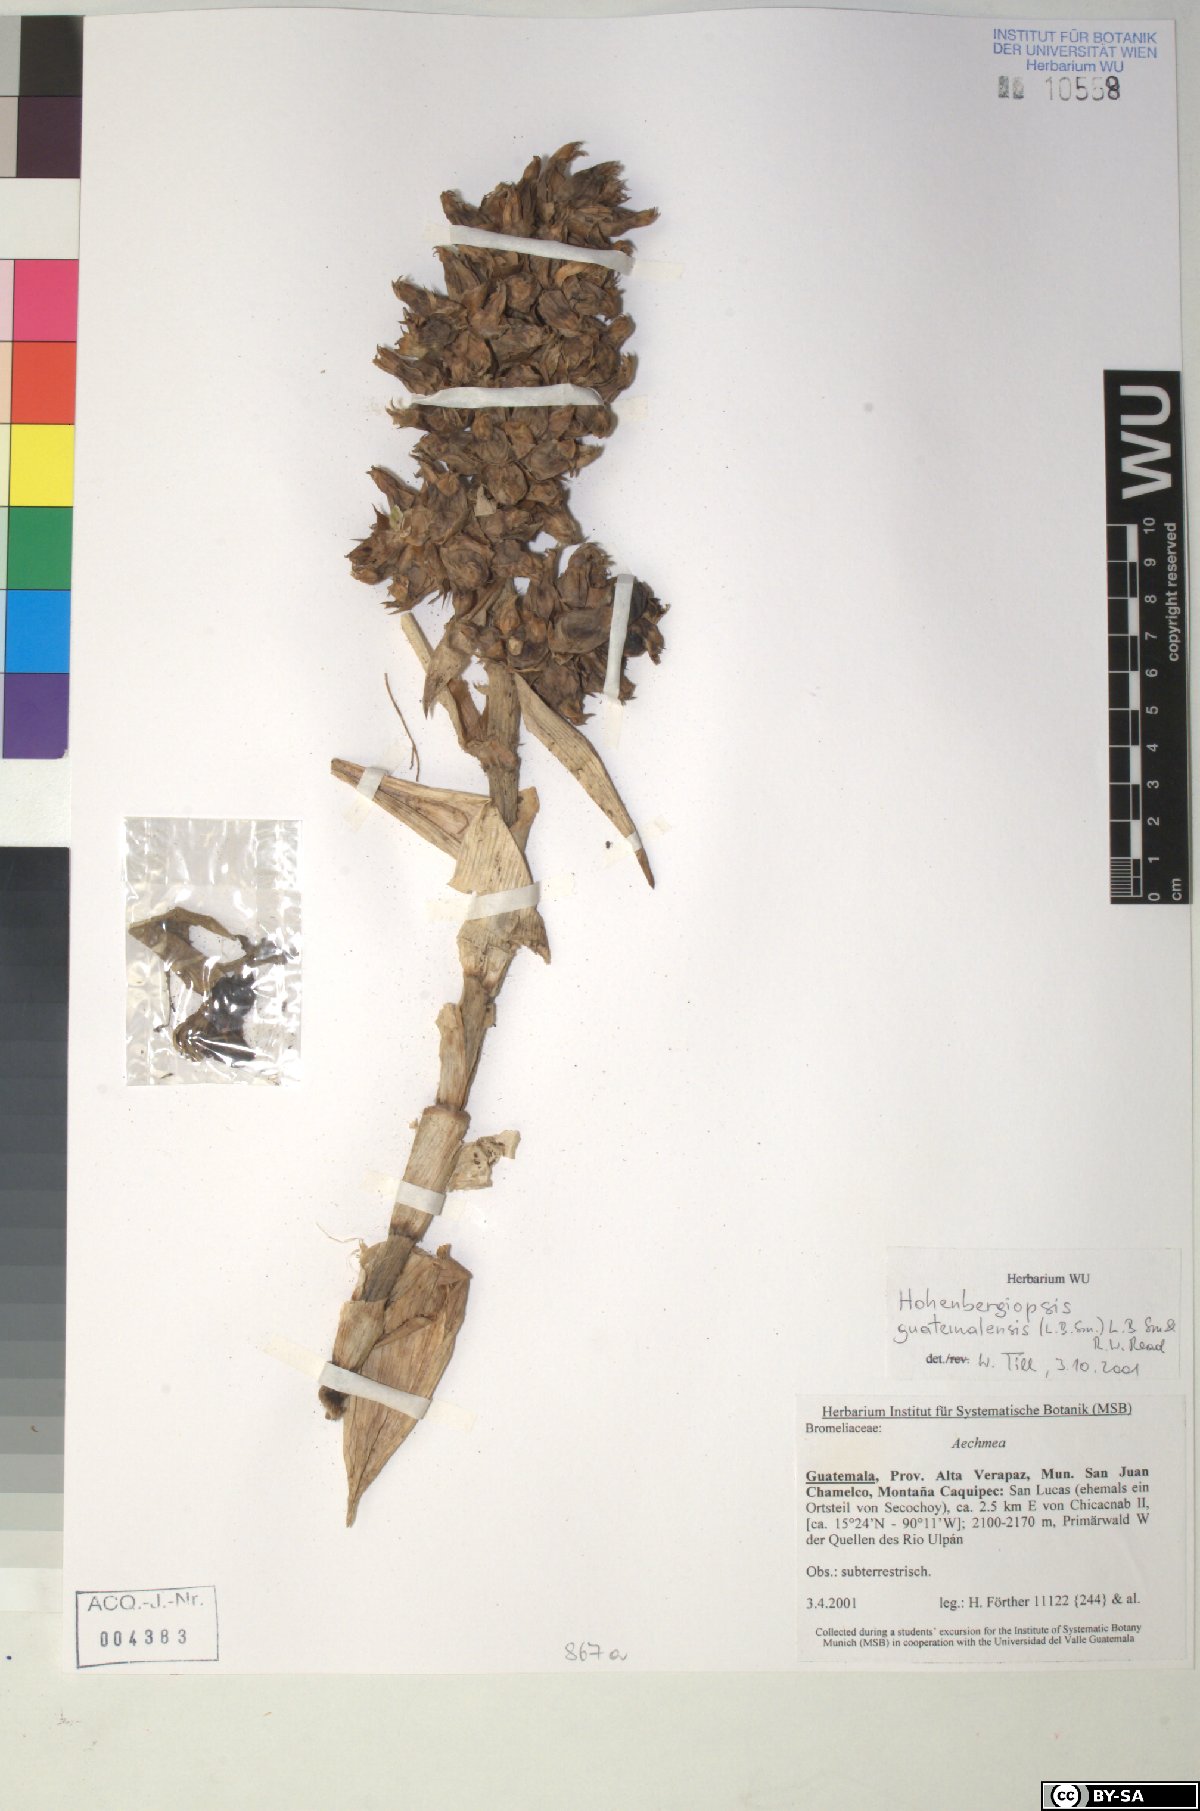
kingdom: Plantae
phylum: Tracheophyta
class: Liliopsida
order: Poales
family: Bromeliaceae
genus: Hohenbergiopsis
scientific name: Hohenbergiopsis guatemalensis
